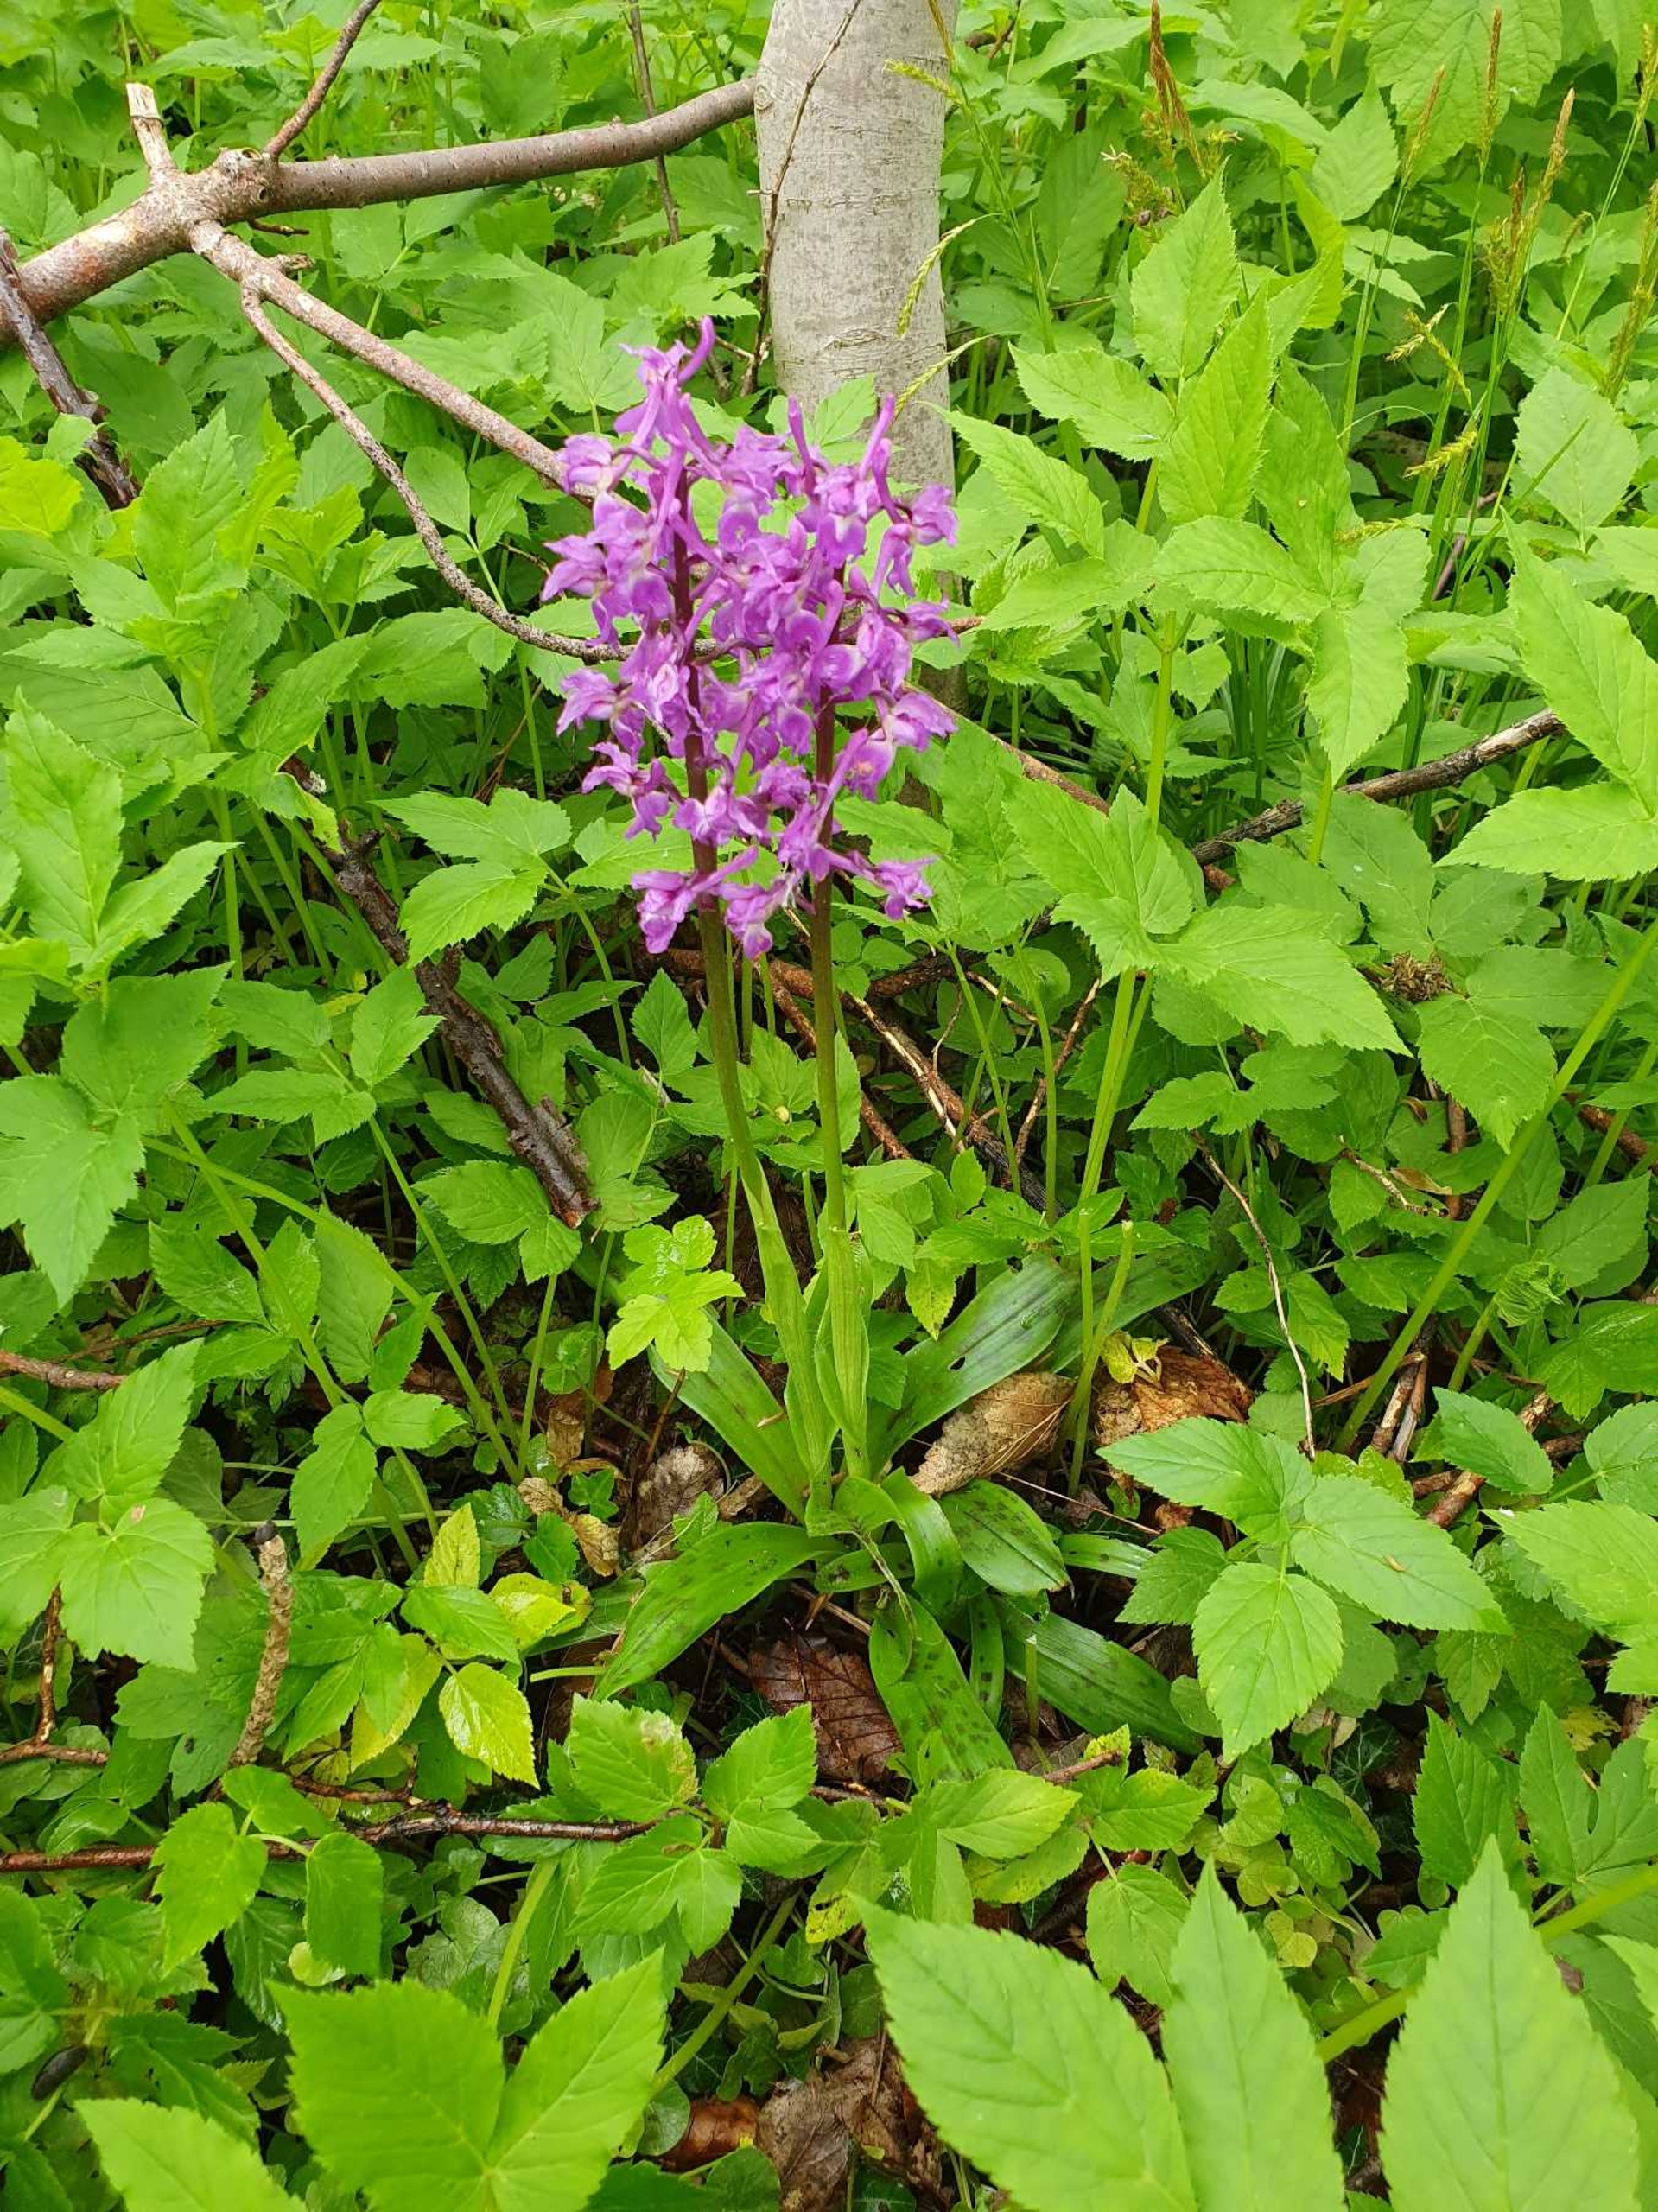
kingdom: Plantae
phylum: Tracheophyta
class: Liliopsida
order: Asparagales
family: Orchidaceae
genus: Orchis
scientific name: Orchis mascula
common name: Tyndakset gøgeurt
